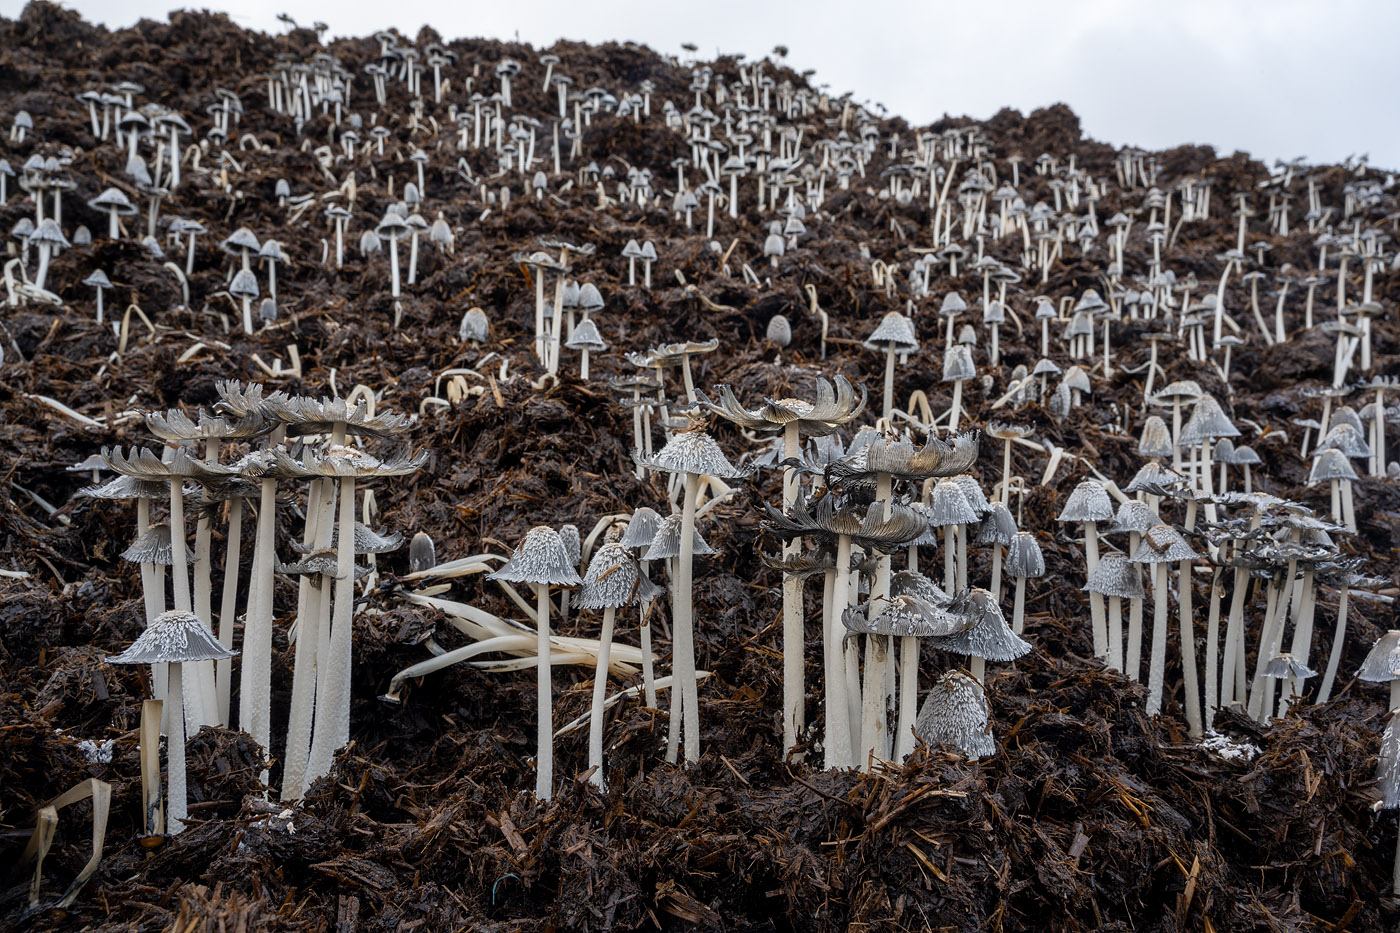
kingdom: Fungi
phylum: Basidiomycota
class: Agaricomycetes
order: Agaricales
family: Psathyrellaceae
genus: Coprinopsis
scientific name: Coprinopsis cinerea
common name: mødding-blækhat
